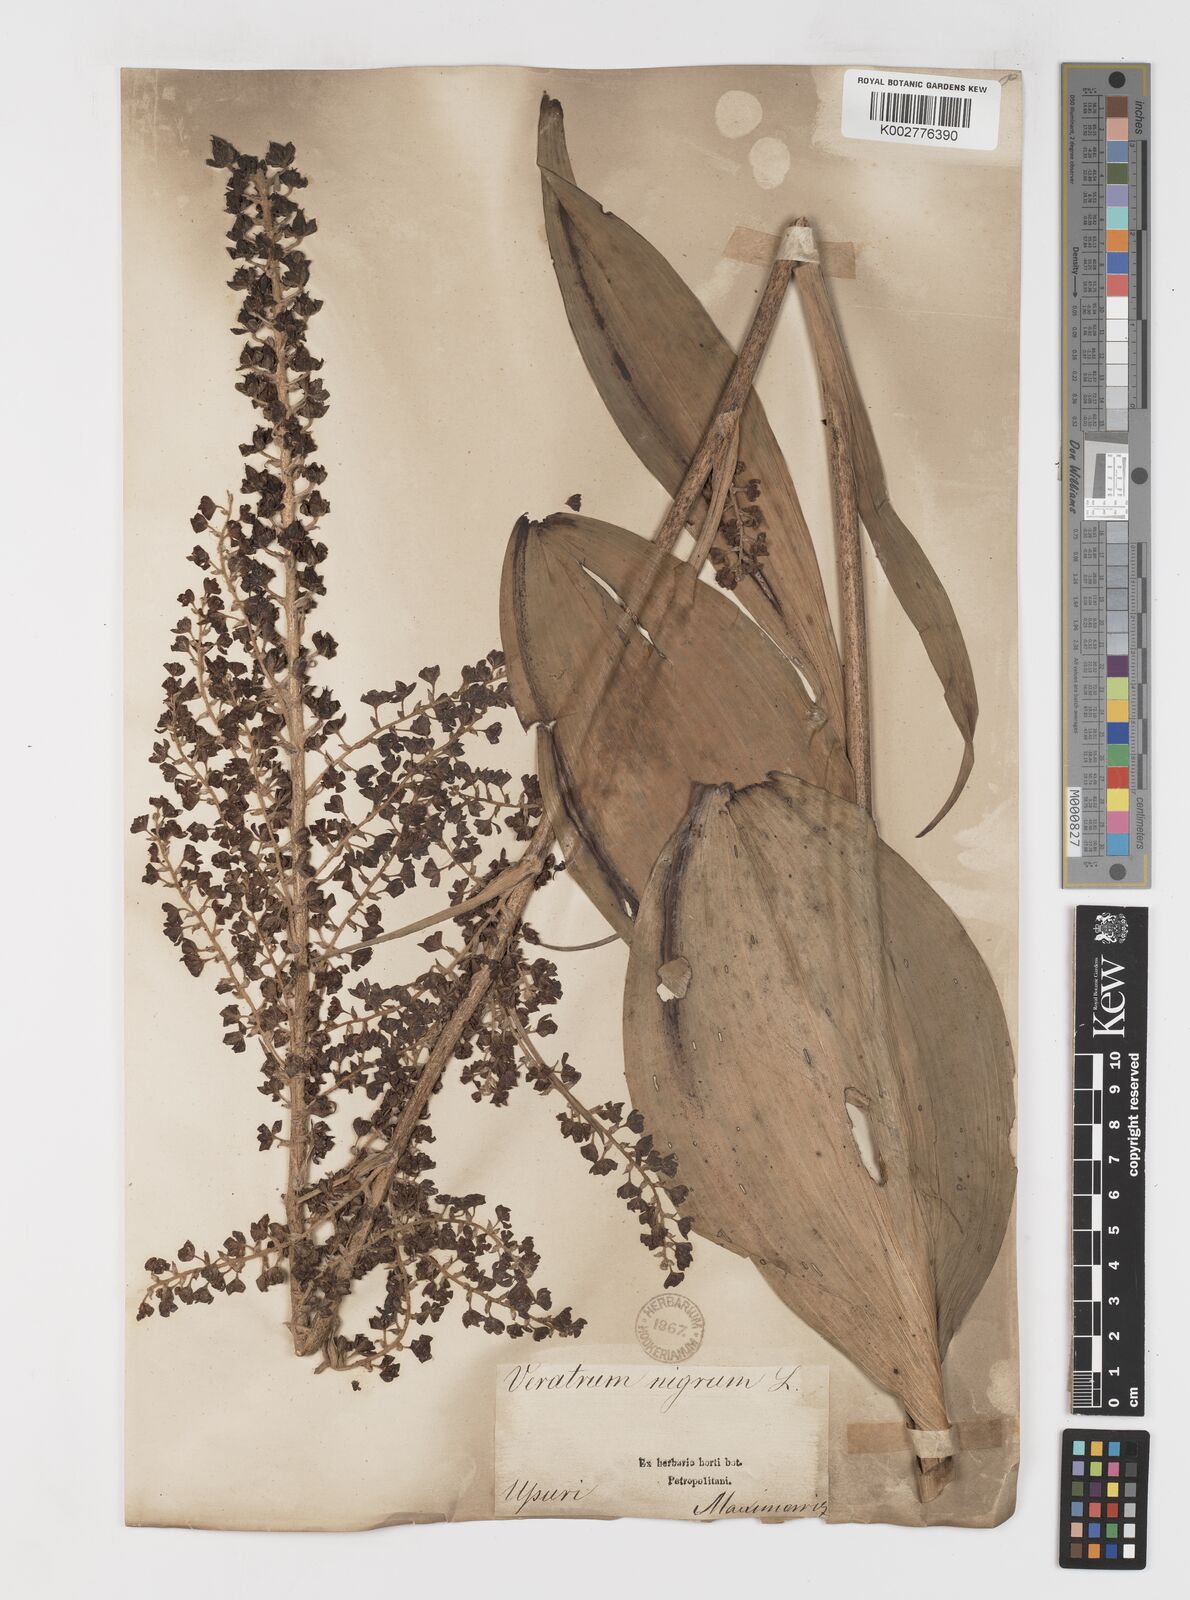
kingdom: Plantae
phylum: Tracheophyta
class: Liliopsida
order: Liliales
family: Melanthiaceae
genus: Veratrum
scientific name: Veratrum nigrum
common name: Black veratrum
